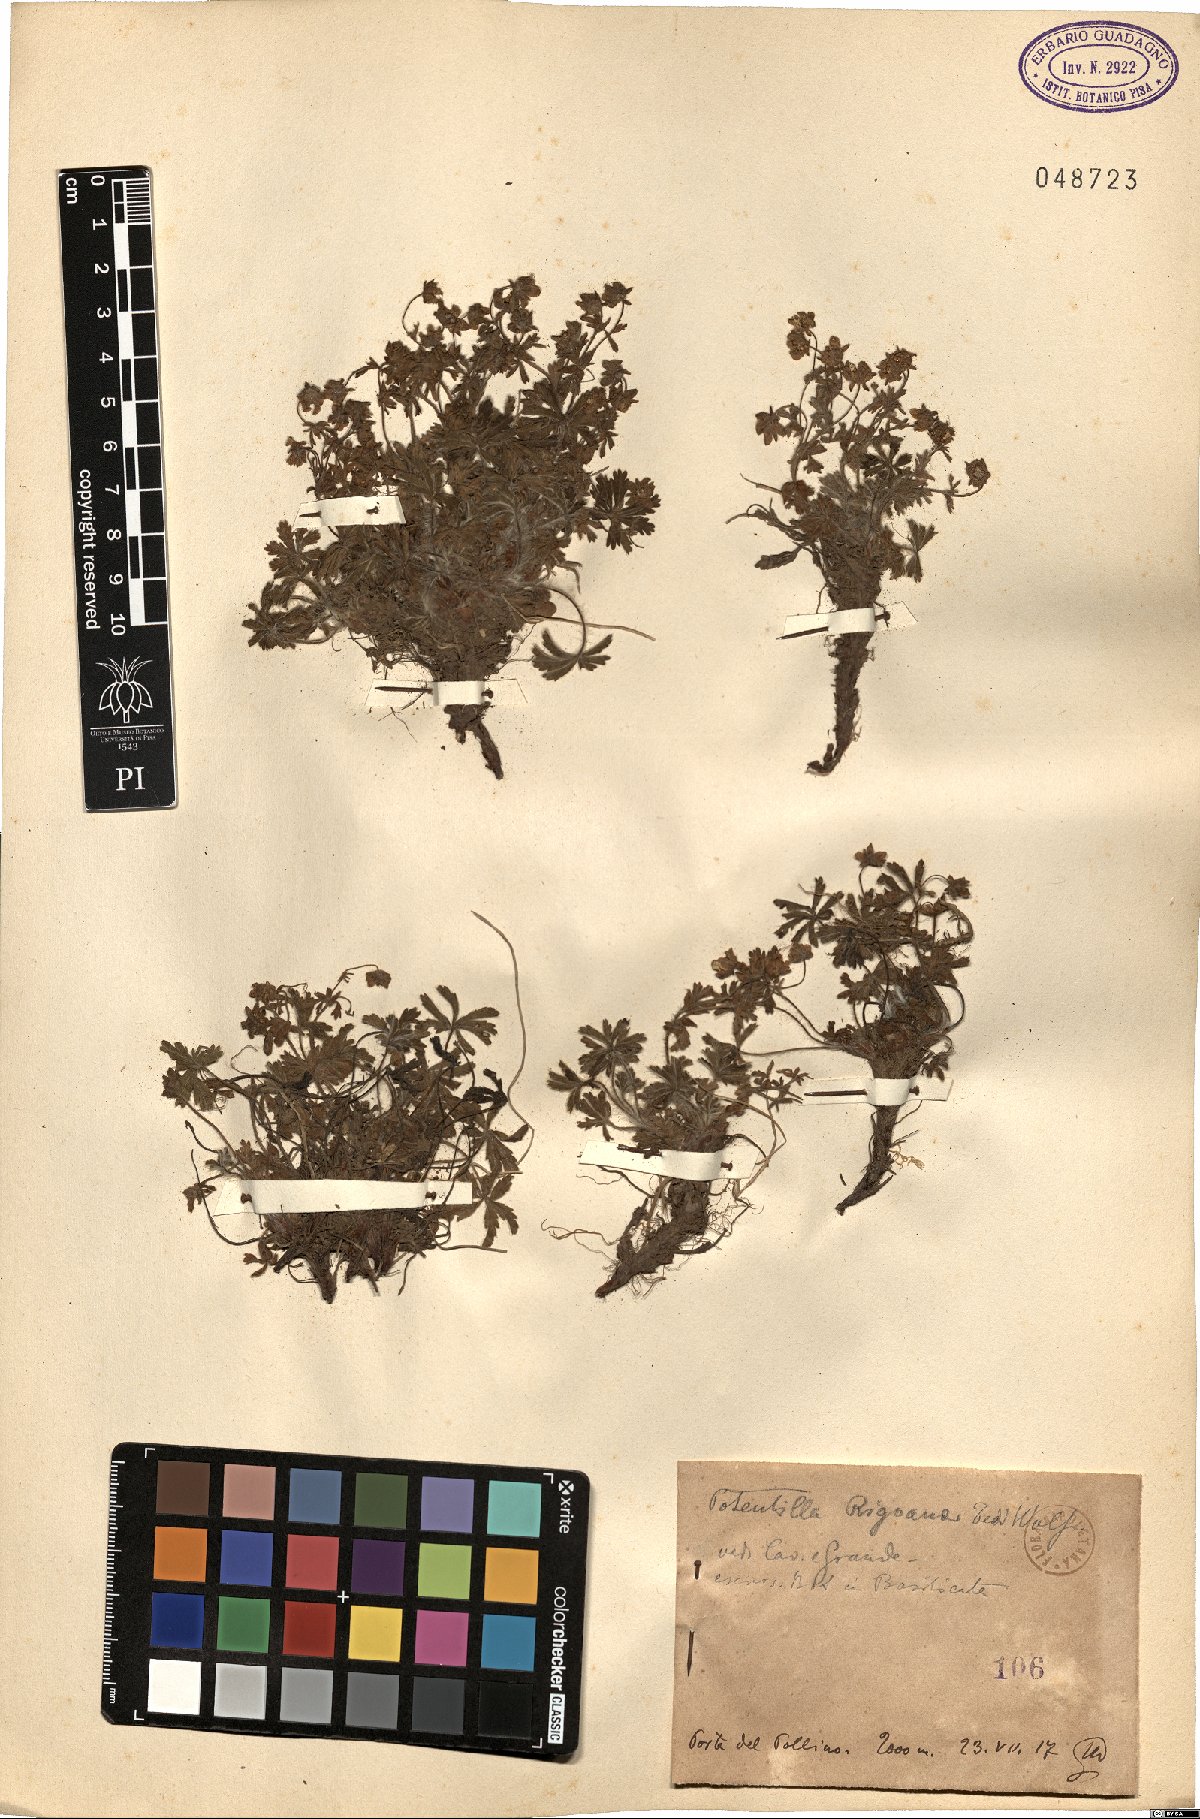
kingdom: Plantae
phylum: Tracheophyta
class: Magnoliopsida
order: Rosales
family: Rosaceae
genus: Potentilla
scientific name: Potentilla rigoana
